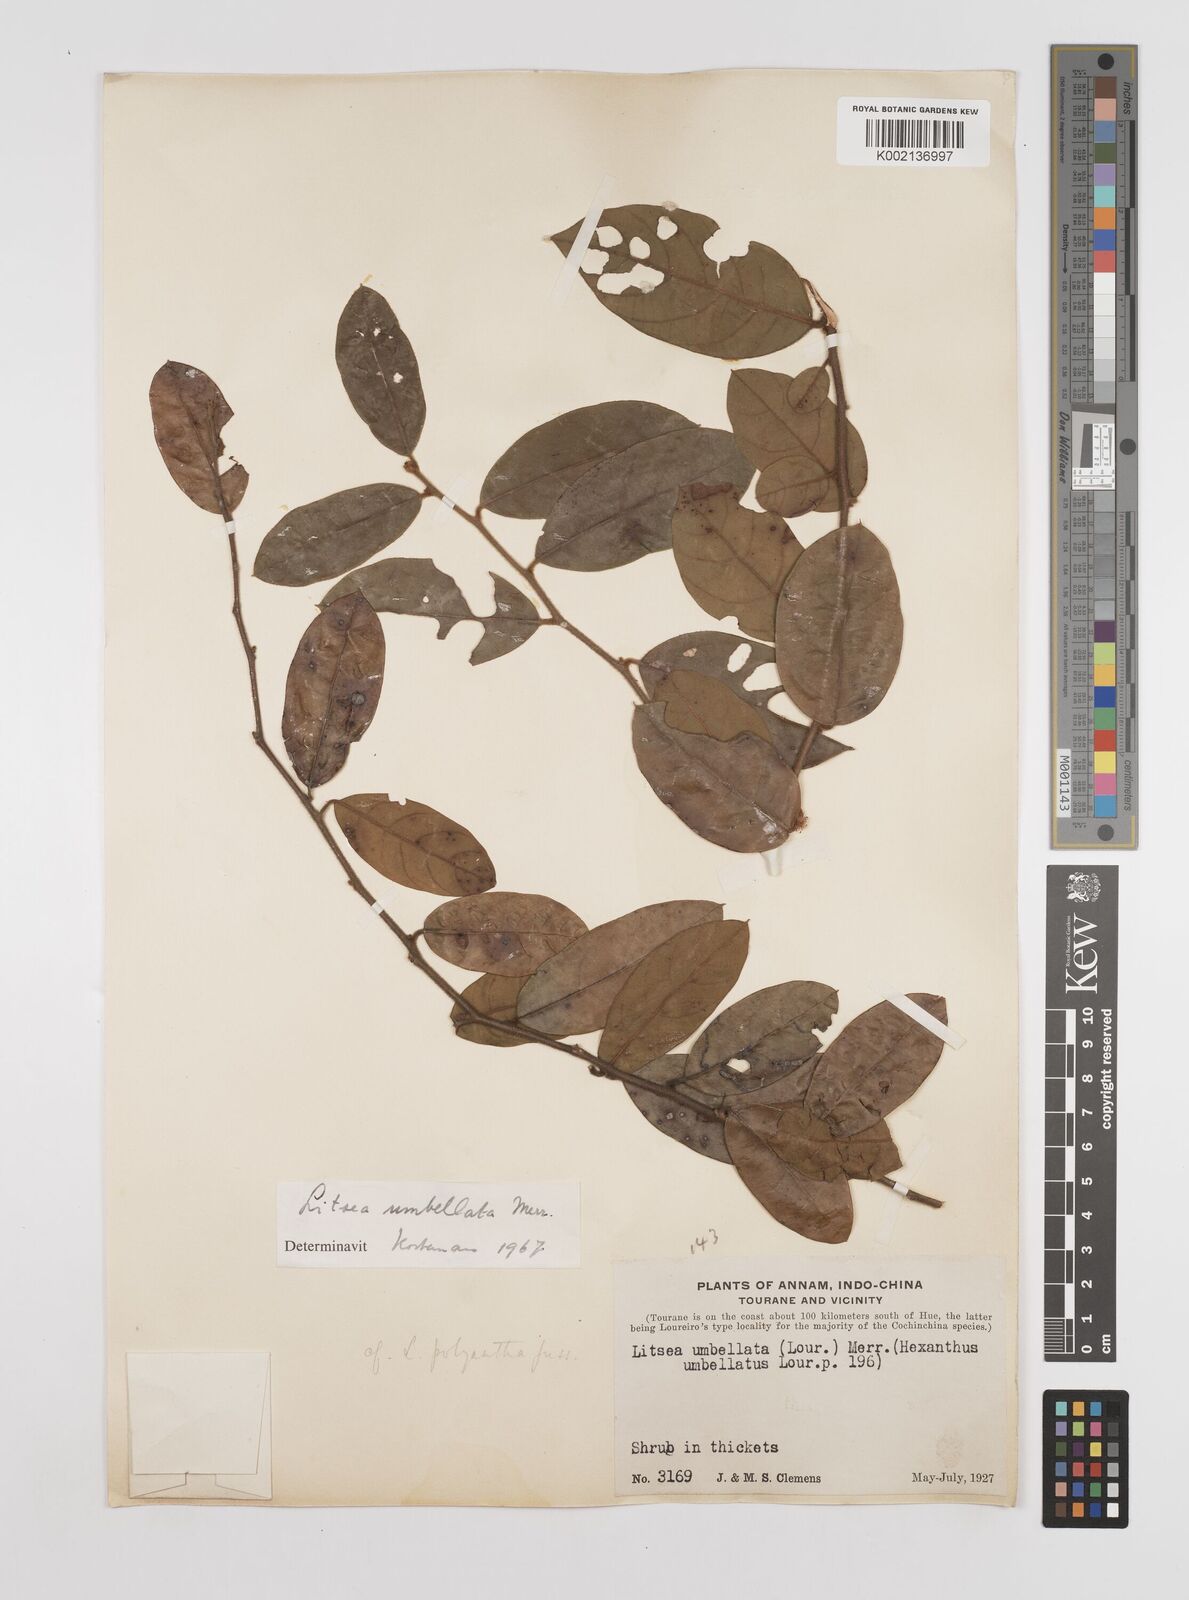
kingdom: Plantae
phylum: Tracheophyta
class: Magnoliopsida
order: Laurales
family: Lauraceae
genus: Litsea
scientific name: Litsea
